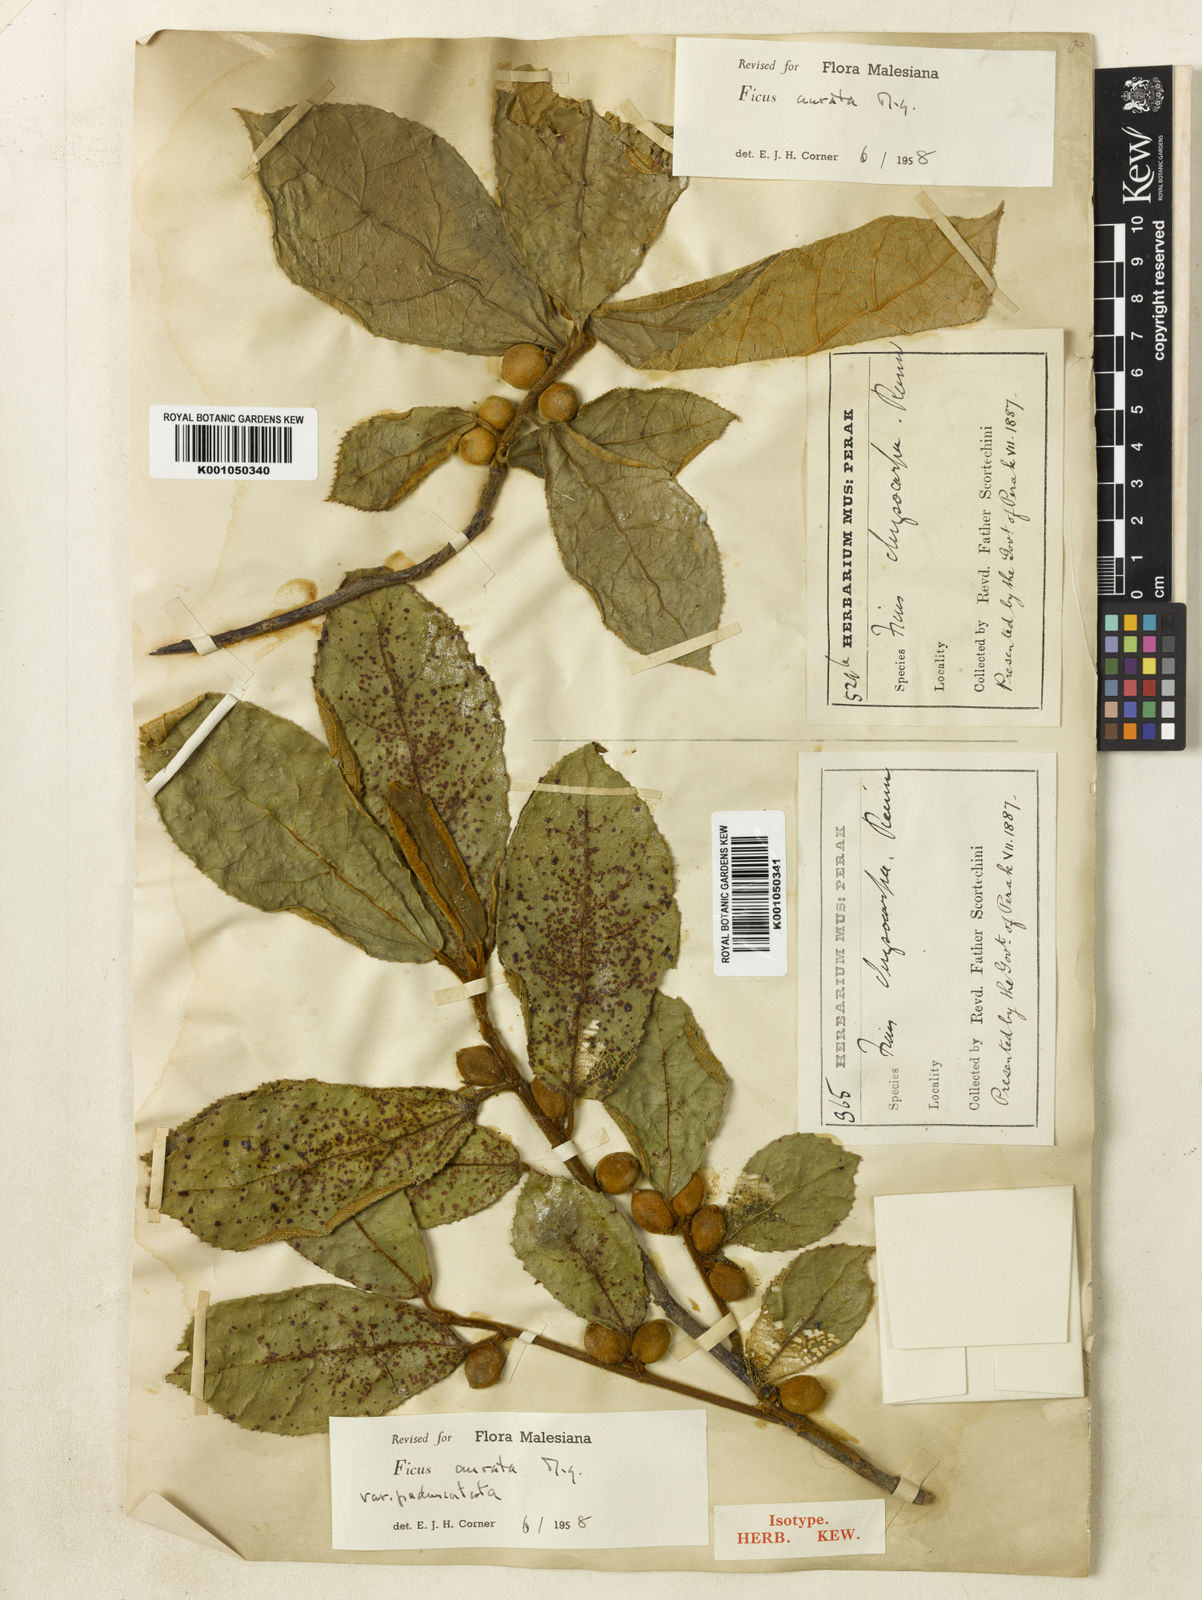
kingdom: Plantae
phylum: Tracheophyta
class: Magnoliopsida
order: Rosales
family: Moraceae
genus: Ficus
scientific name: Ficus aurata
